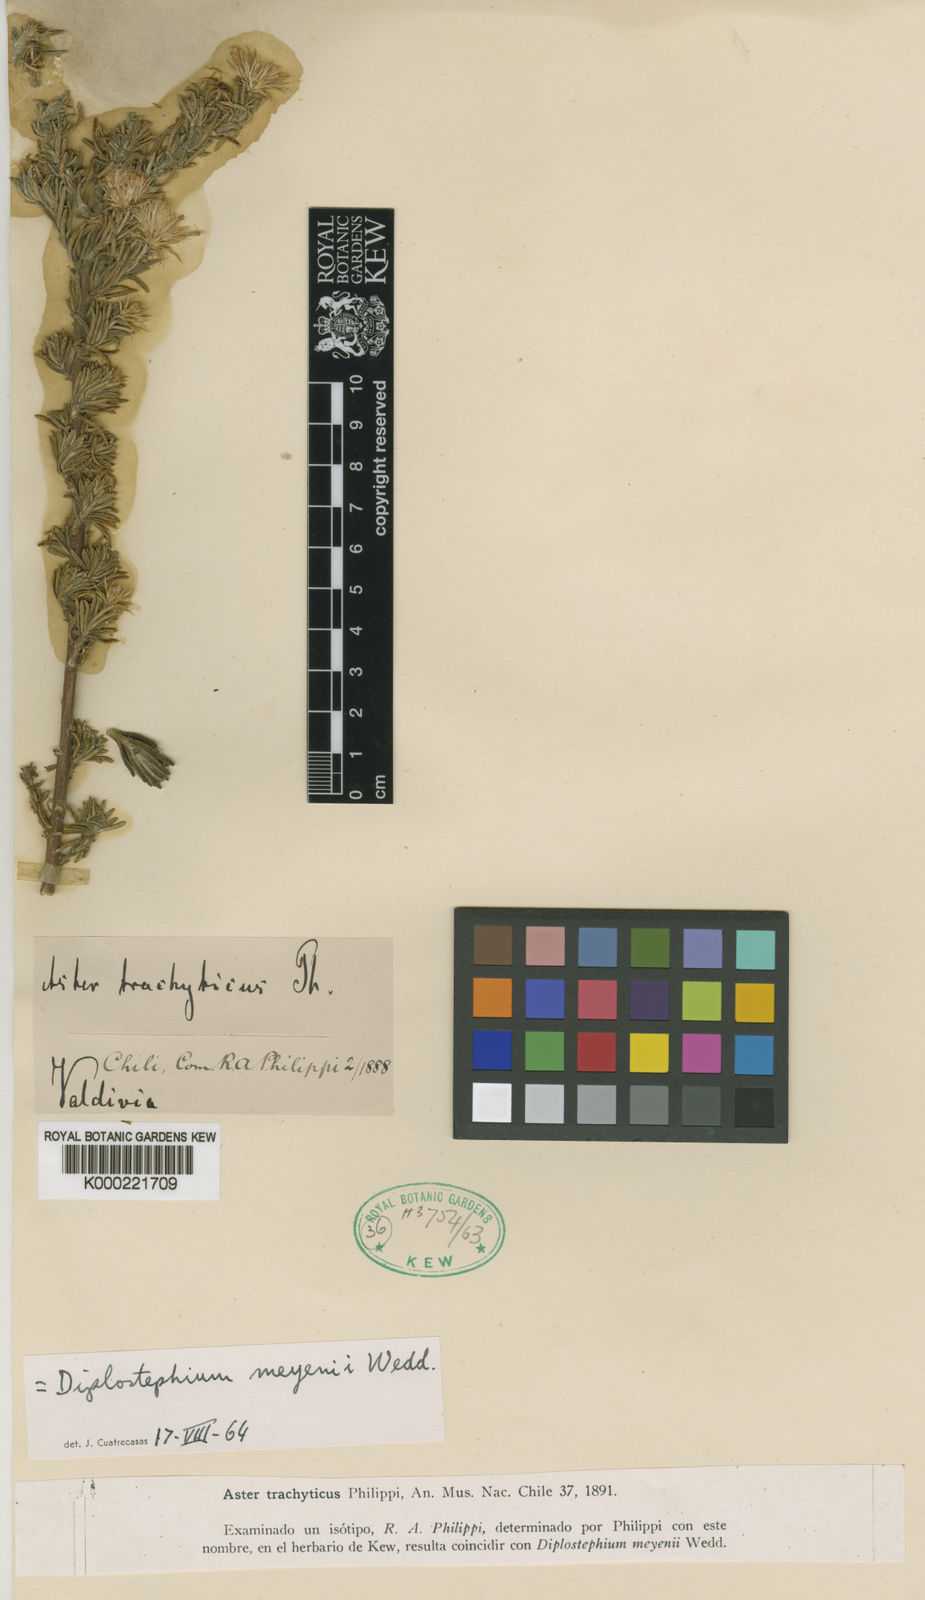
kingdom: Plantae
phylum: Tracheophyta
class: Magnoliopsida
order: Asterales
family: Asteraceae
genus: Diplostephium
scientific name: Diplostephium meyenii
